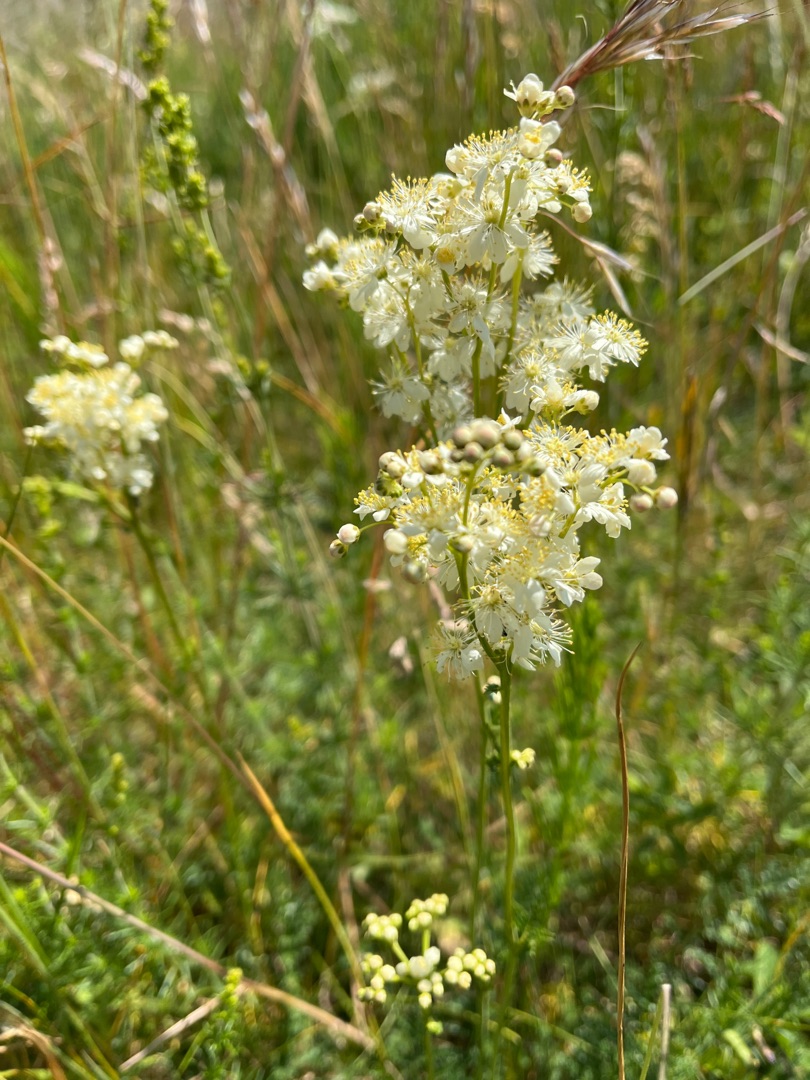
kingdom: Plantae
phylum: Tracheophyta
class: Magnoliopsida
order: Rosales
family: Rosaceae
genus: Filipendula
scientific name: Filipendula vulgaris
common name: Knoldet mjødurt
